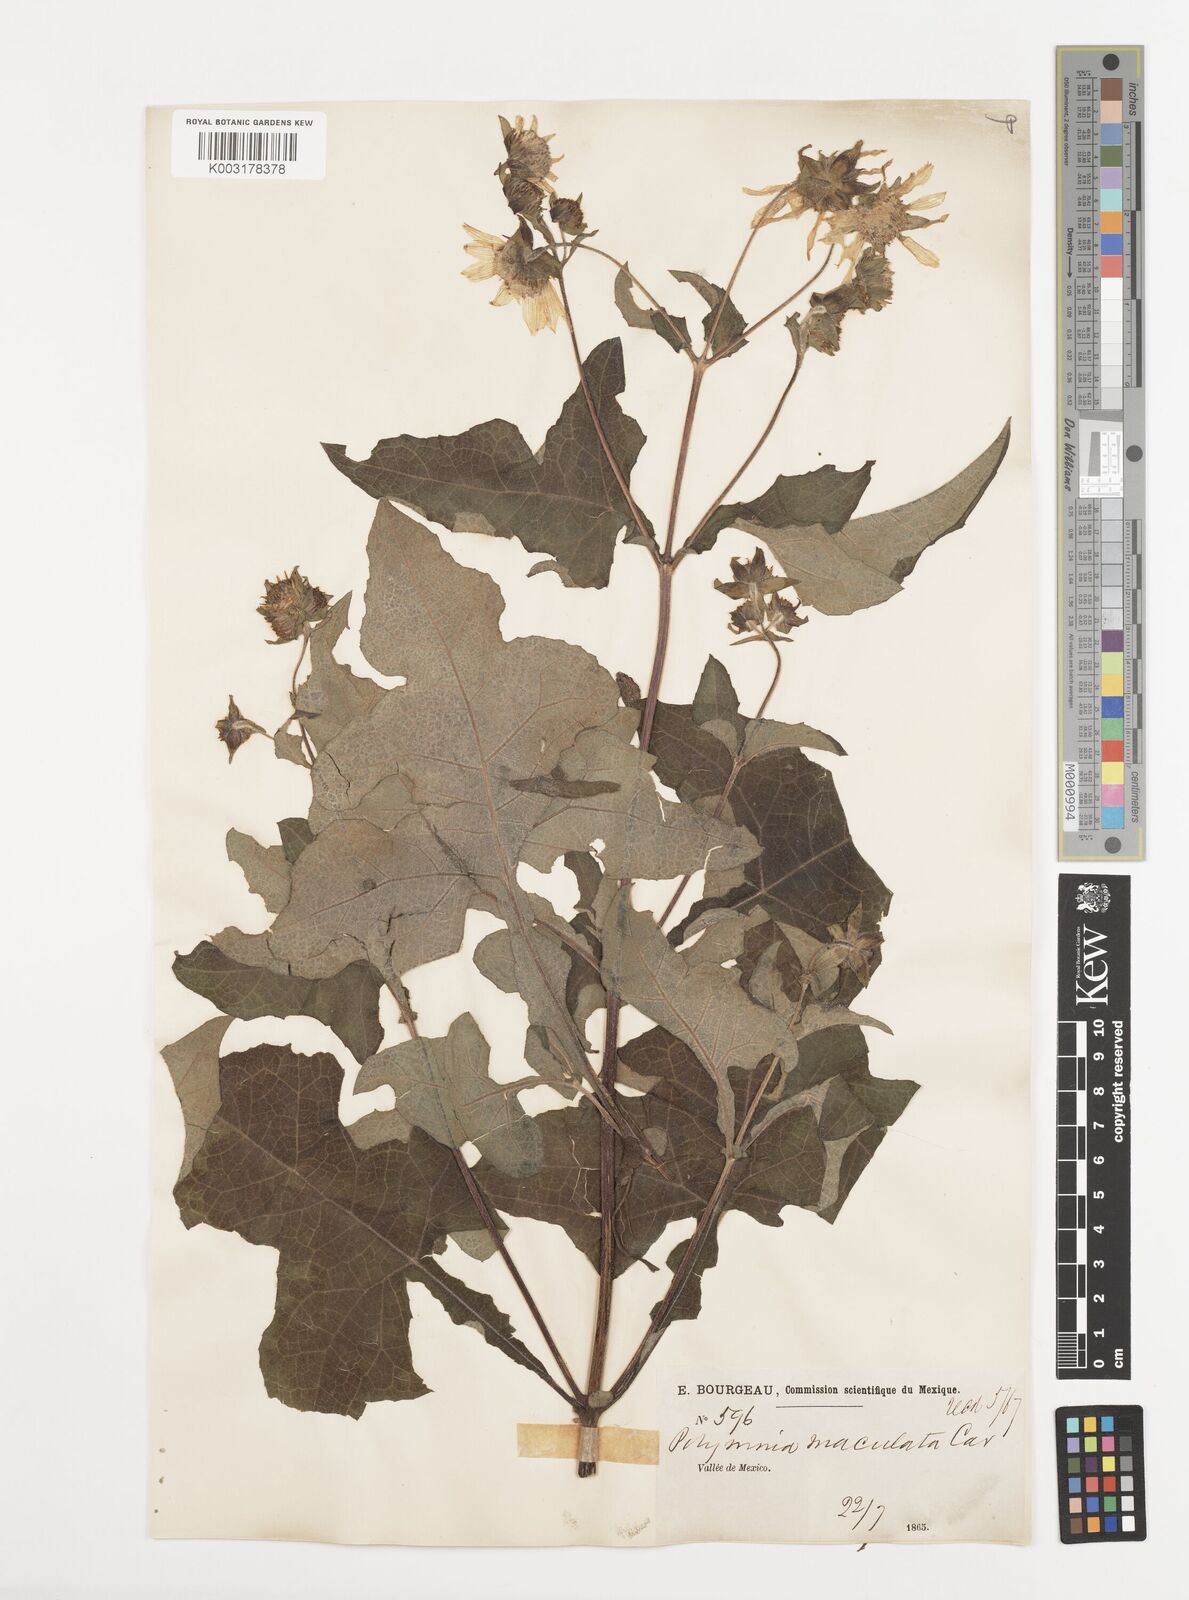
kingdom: Plantae
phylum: Tracheophyta
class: Magnoliopsida
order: Asterales
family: Asteraceae
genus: Smallanthus
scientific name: Smallanthus maculatus
